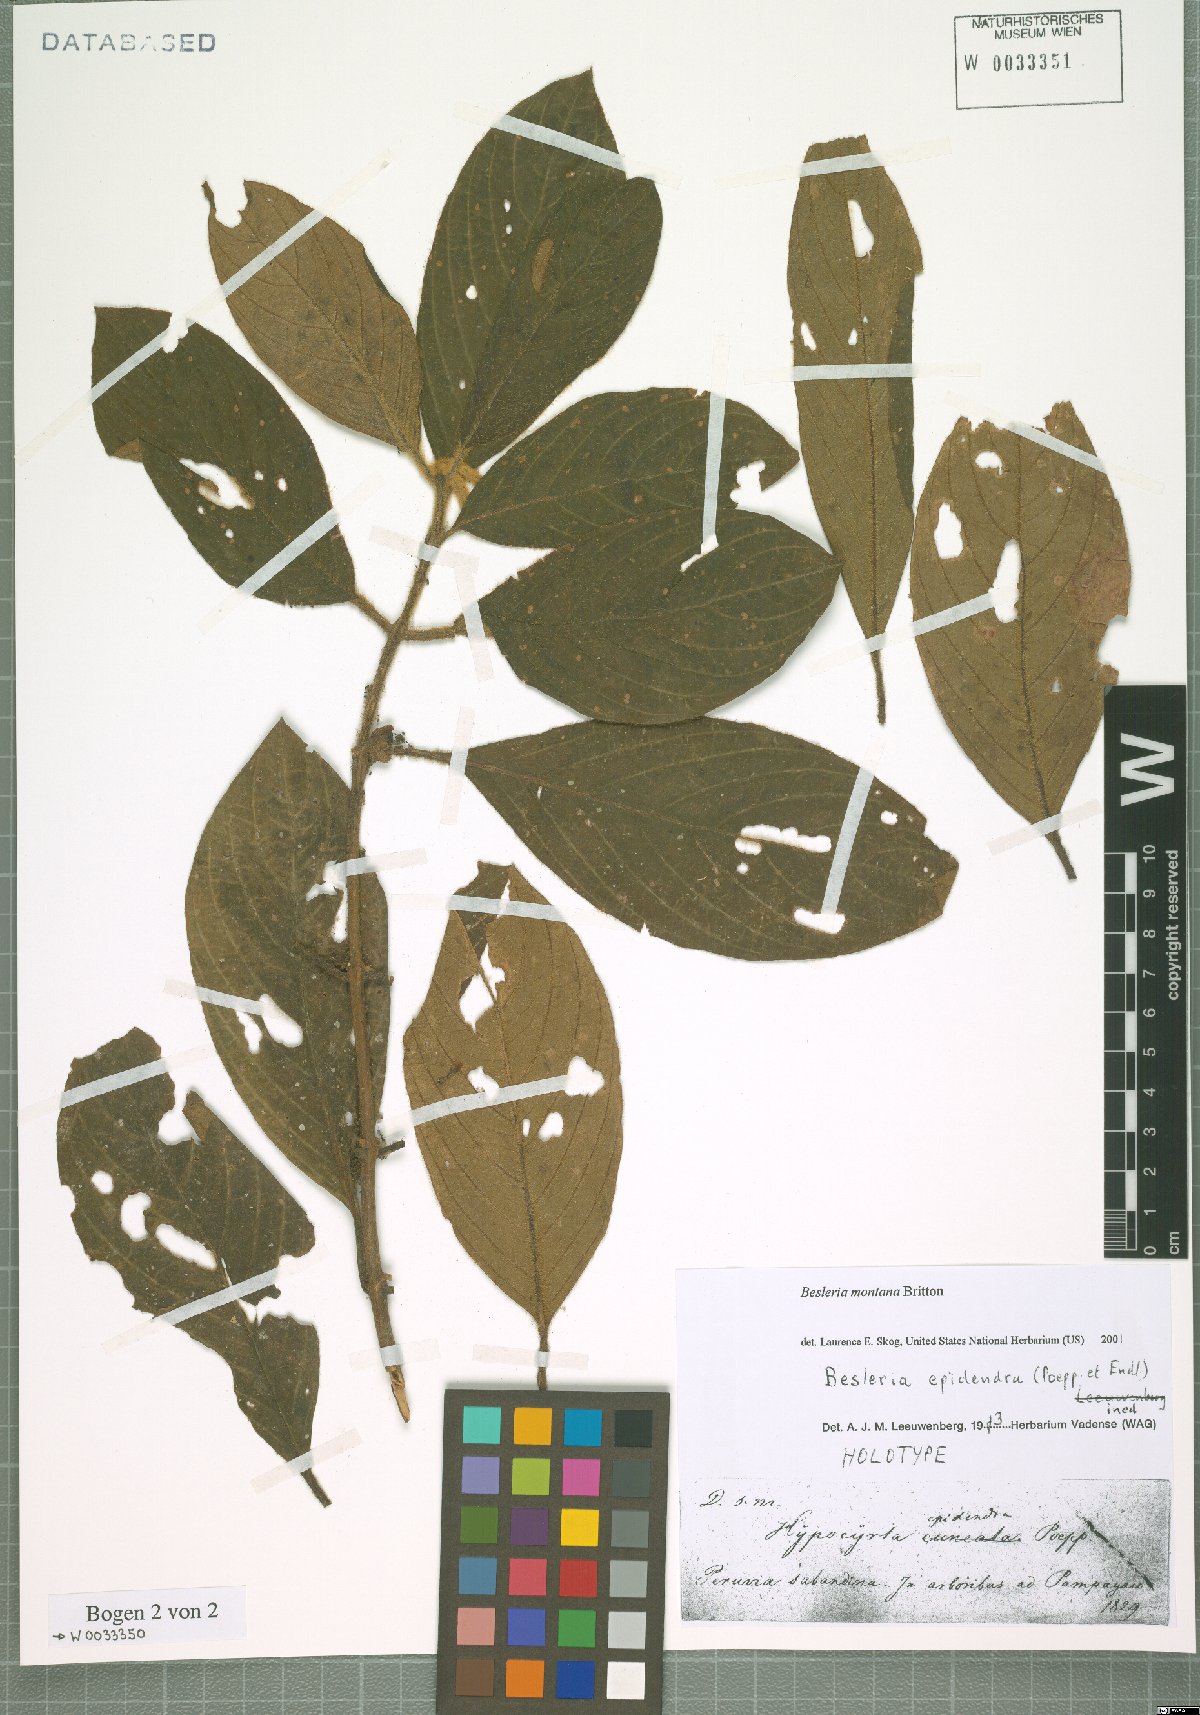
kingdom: Plantae
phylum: Tracheophyta
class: Magnoliopsida
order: Lamiales
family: Gesneriaceae
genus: Besleria
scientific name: Besleria montana
